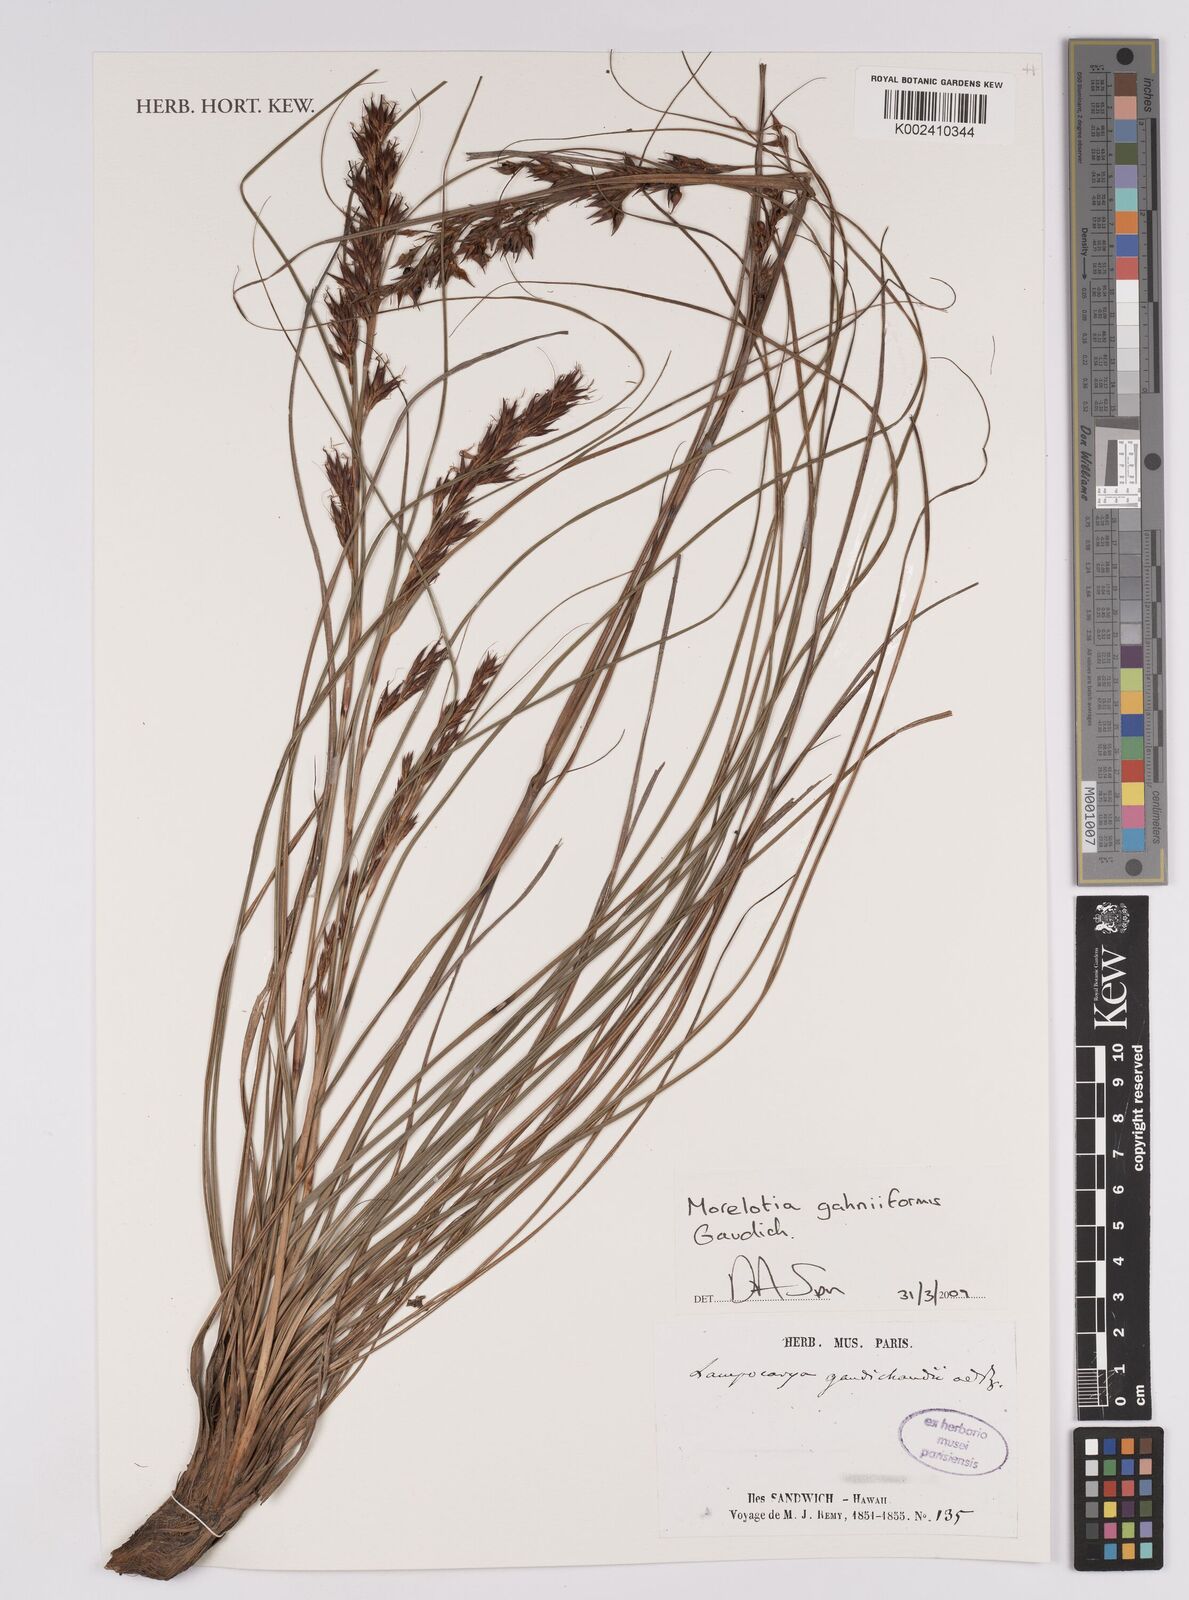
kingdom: Plantae
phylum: Tracheophyta
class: Liliopsida
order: Poales
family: Cyperaceae
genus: Morelotia
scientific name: Morelotia gahniiformis
